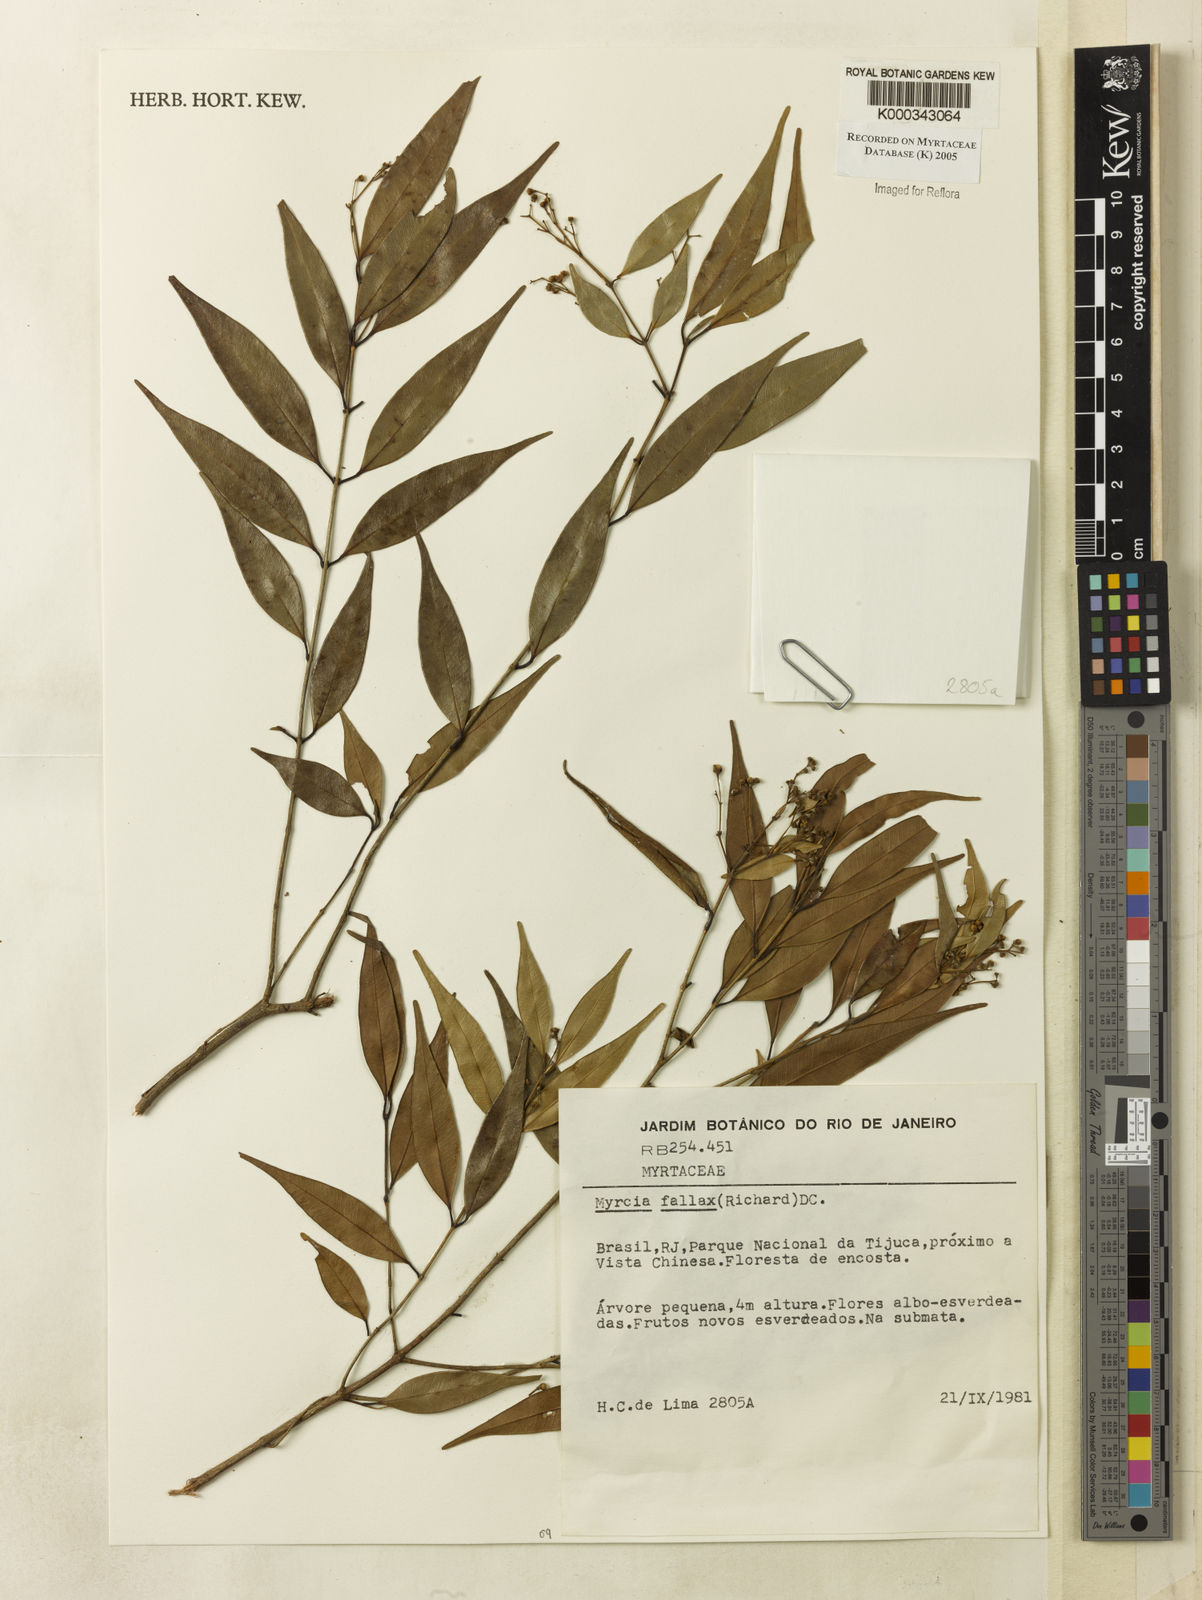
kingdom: Plantae
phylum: Tracheophyta
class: Magnoliopsida
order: Myrtales
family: Myrtaceae
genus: Myrcia
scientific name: Myrcia splendens
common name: Surinam cherry
